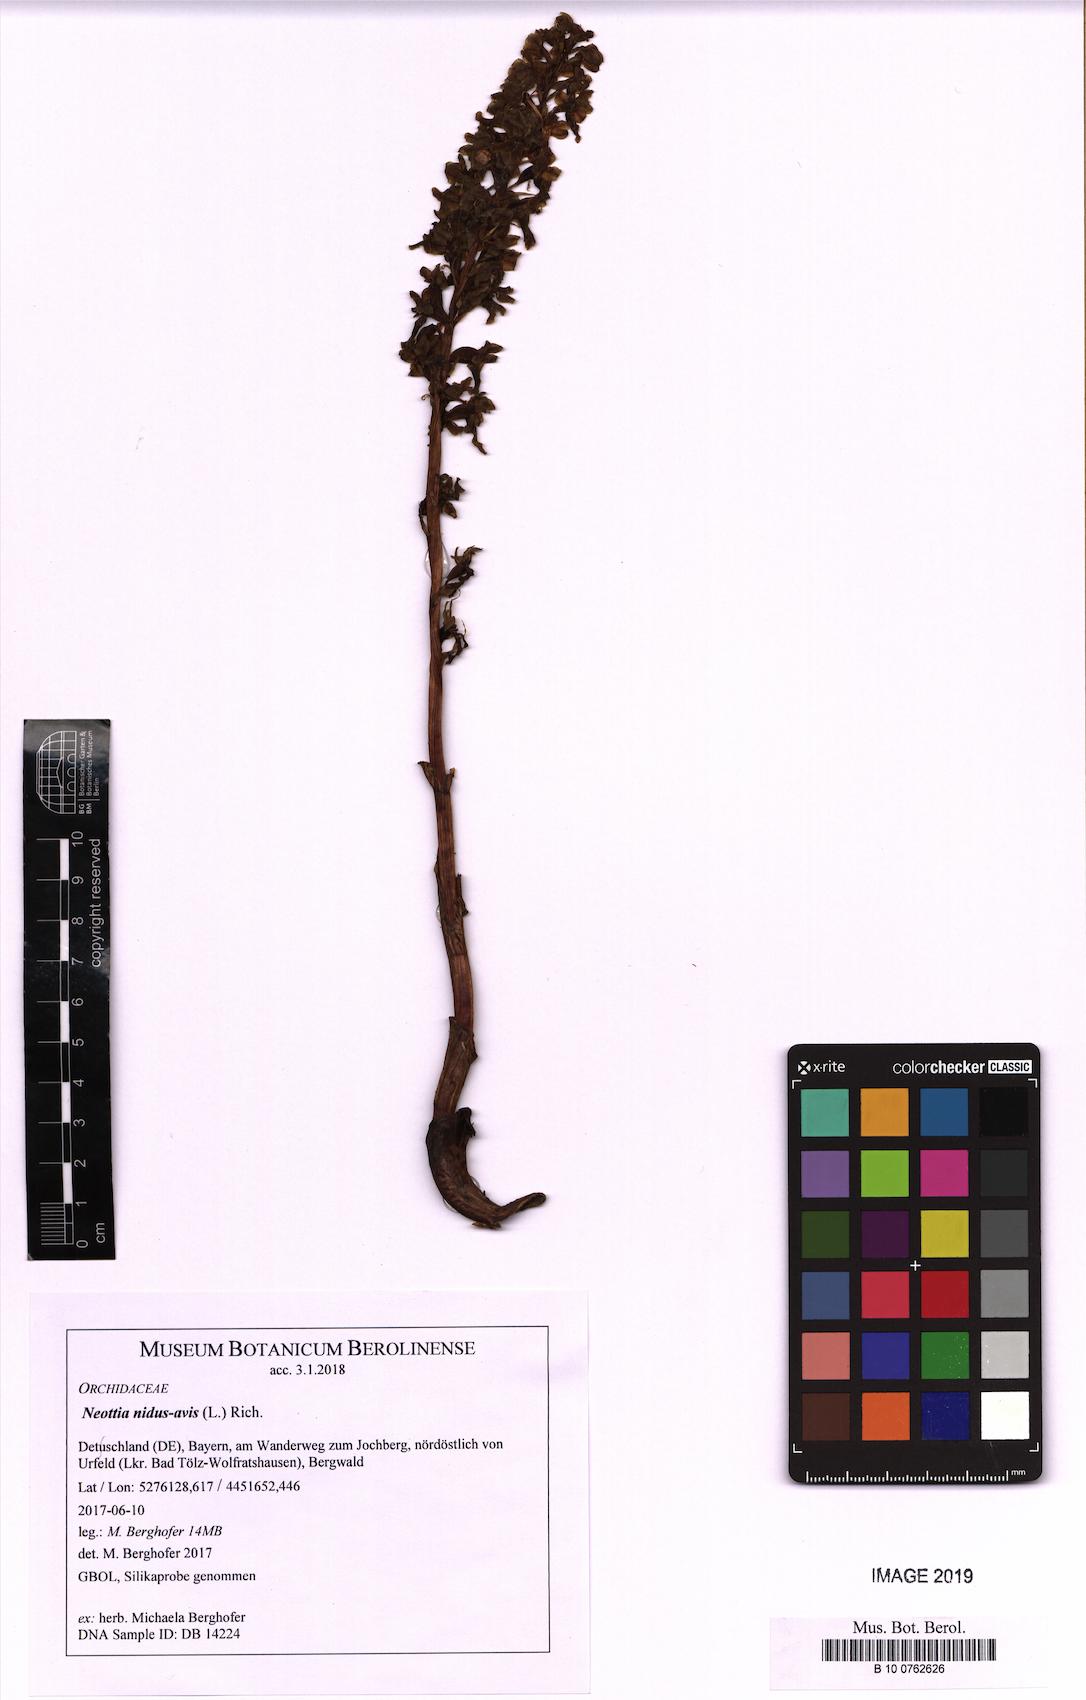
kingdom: Plantae
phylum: Tracheophyta
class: Liliopsida
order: Asparagales
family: Orchidaceae
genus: Neottia
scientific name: Neottia nidus-avis
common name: Bird's-nest orchid
